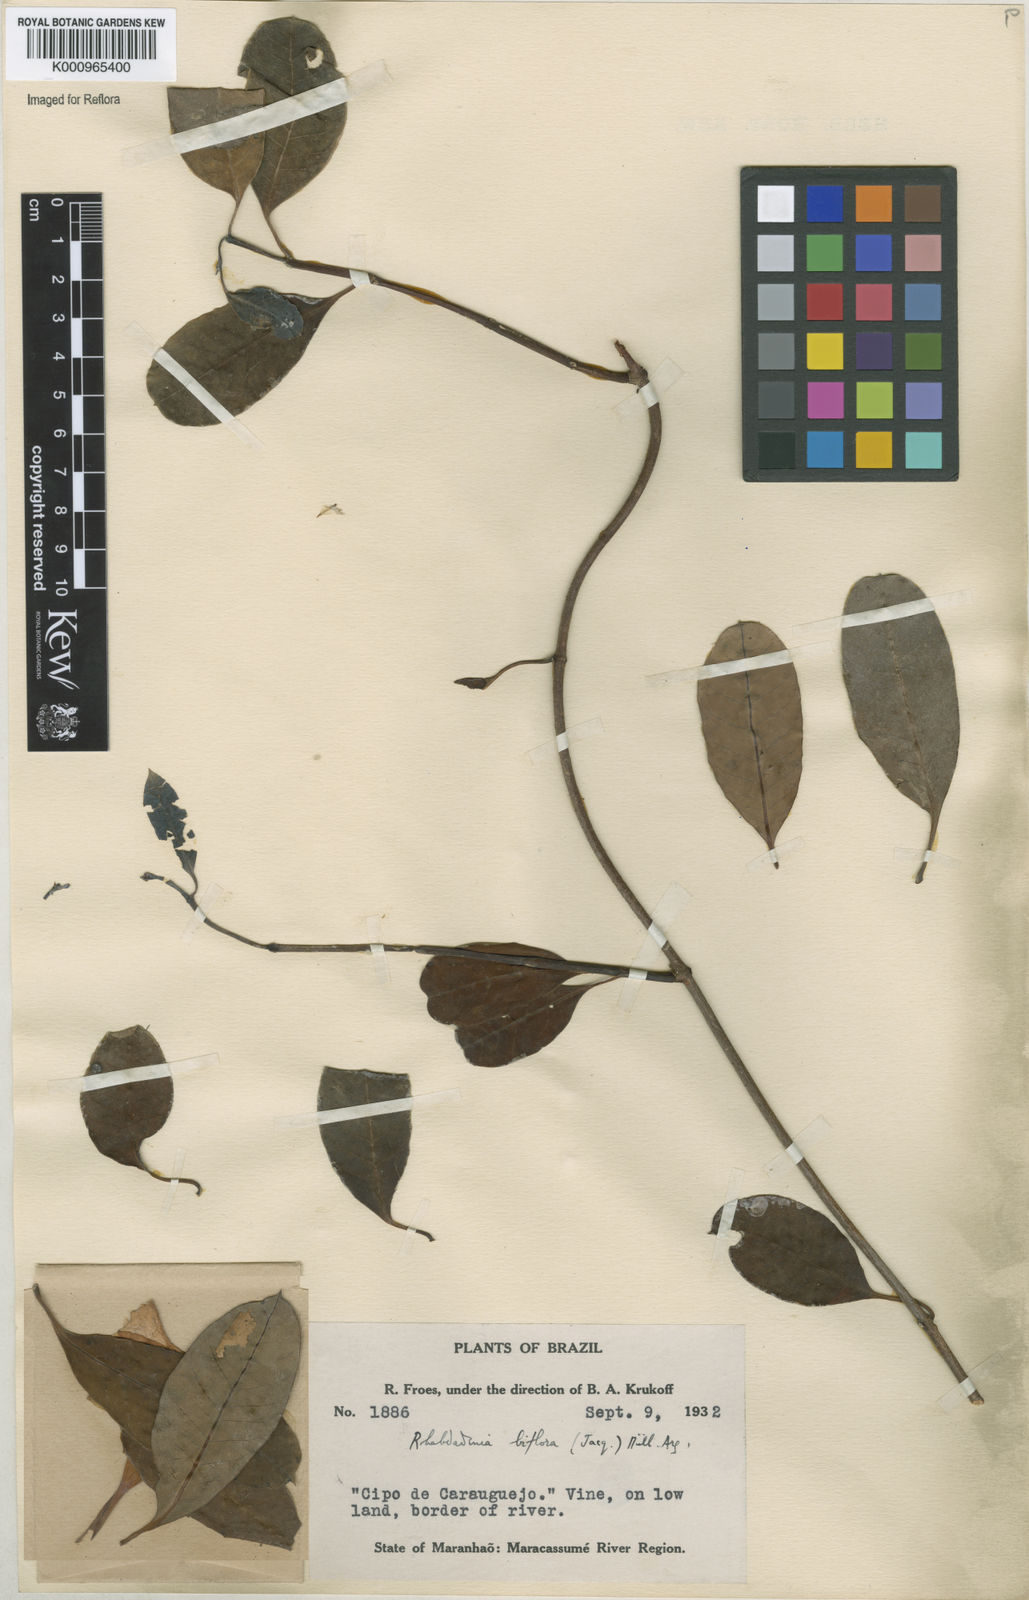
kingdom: Plantae
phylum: Tracheophyta
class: Magnoliopsida
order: Gentianales
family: Apocynaceae
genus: Rhabdadenia
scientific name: Rhabdadenia
